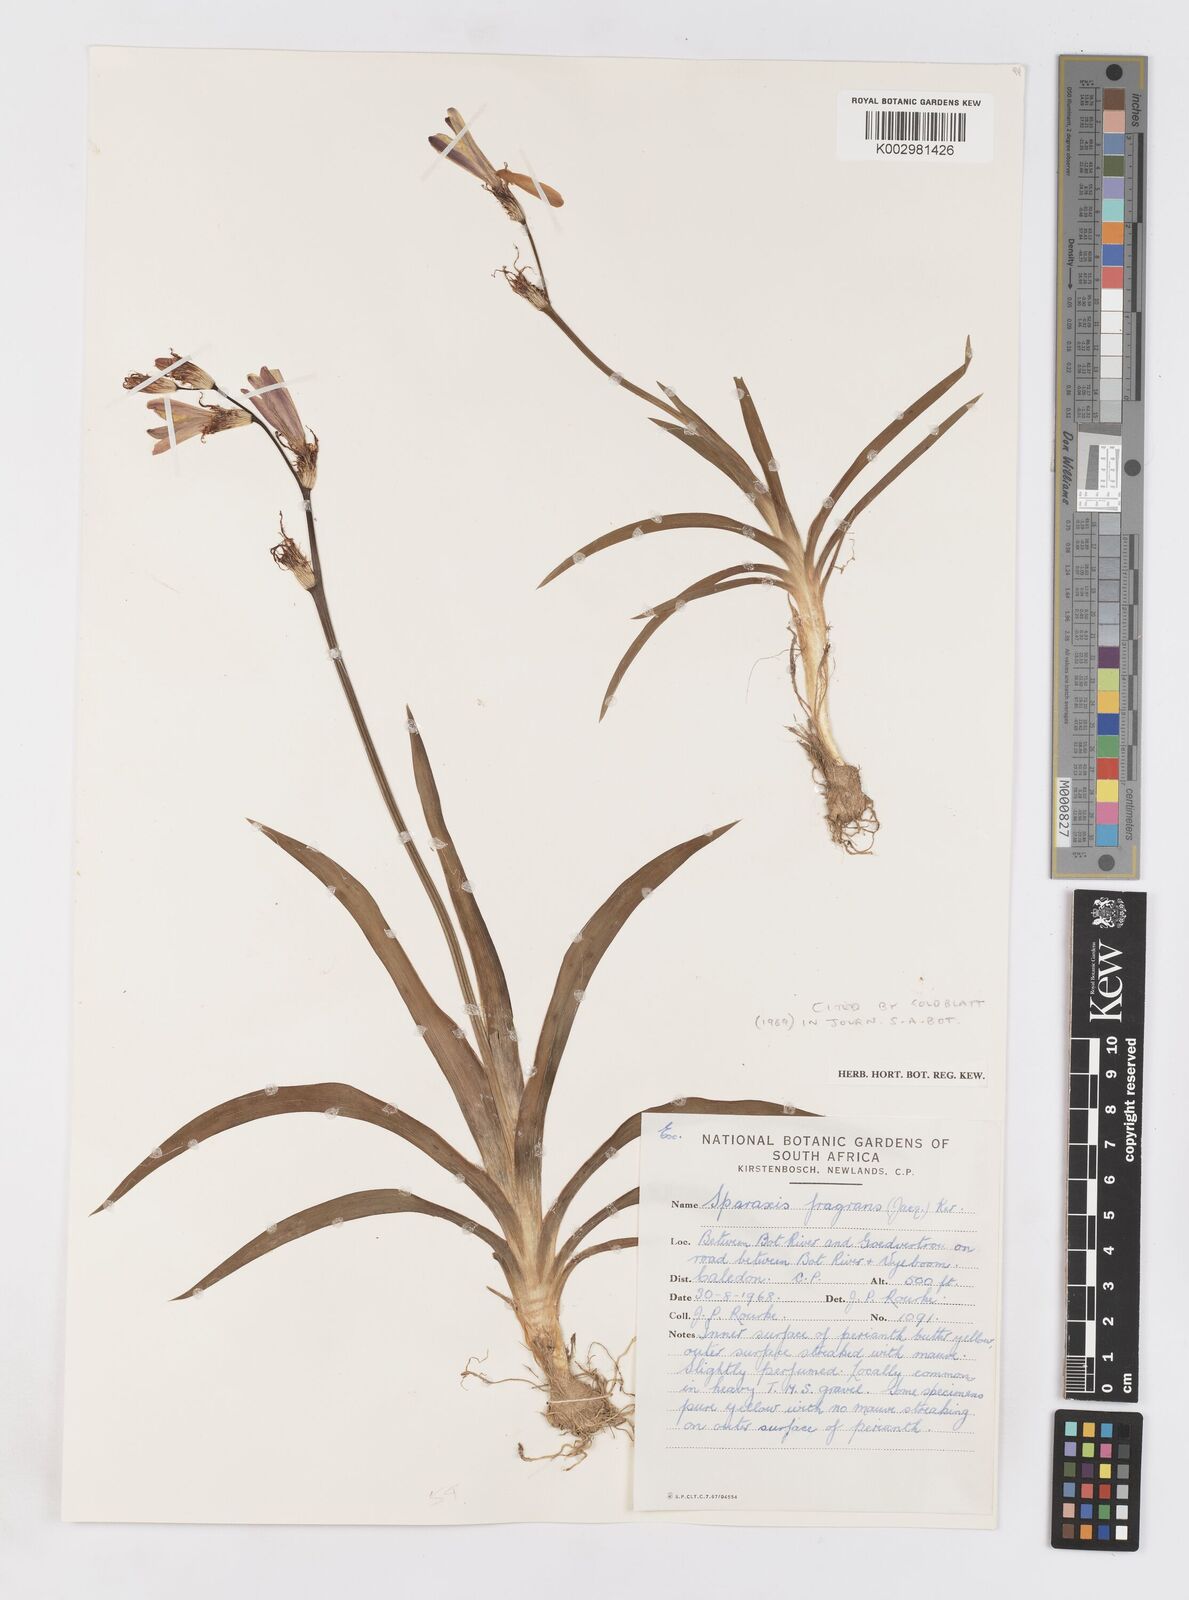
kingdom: Plantae
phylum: Tracheophyta
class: Liliopsida
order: Asparagales
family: Iridaceae
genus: Sparaxis
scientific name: Sparaxis fragrans
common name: Fragrant wandflower
